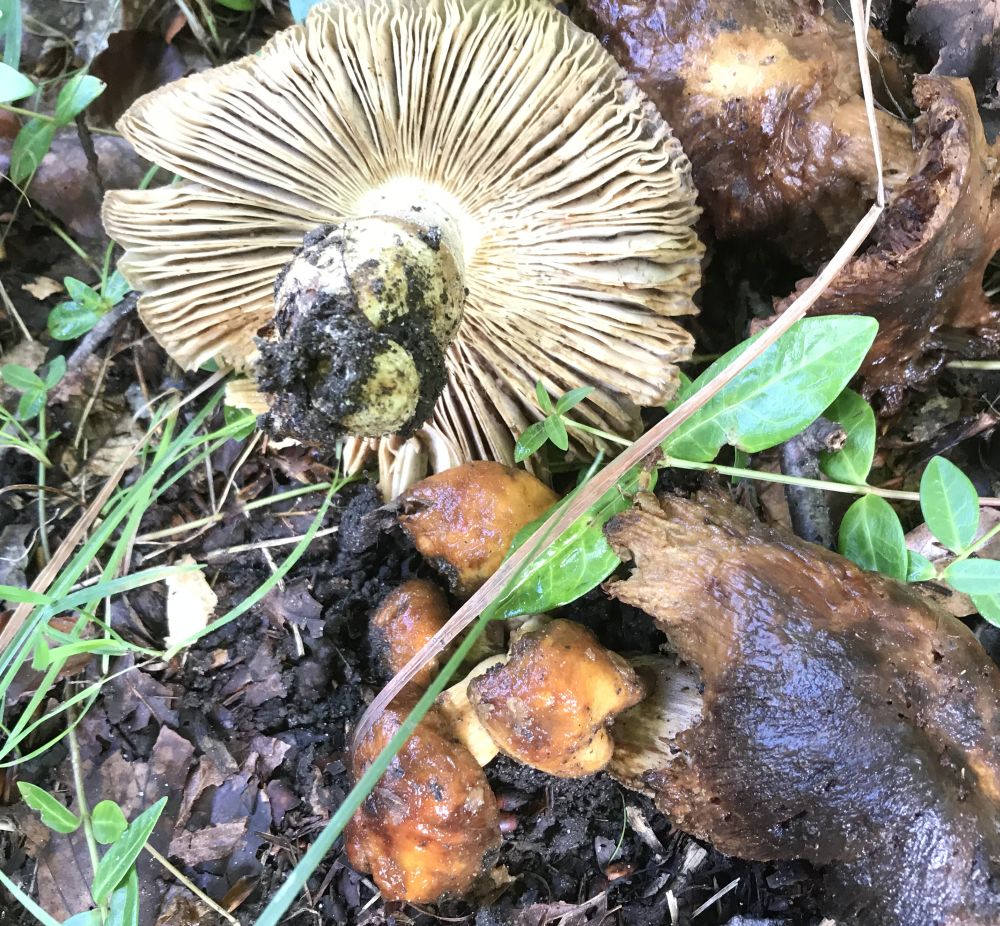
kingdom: Fungi
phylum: Basidiomycota
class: Agaricomycetes
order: Russulales
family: Russulaceae
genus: Russula
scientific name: Russula
